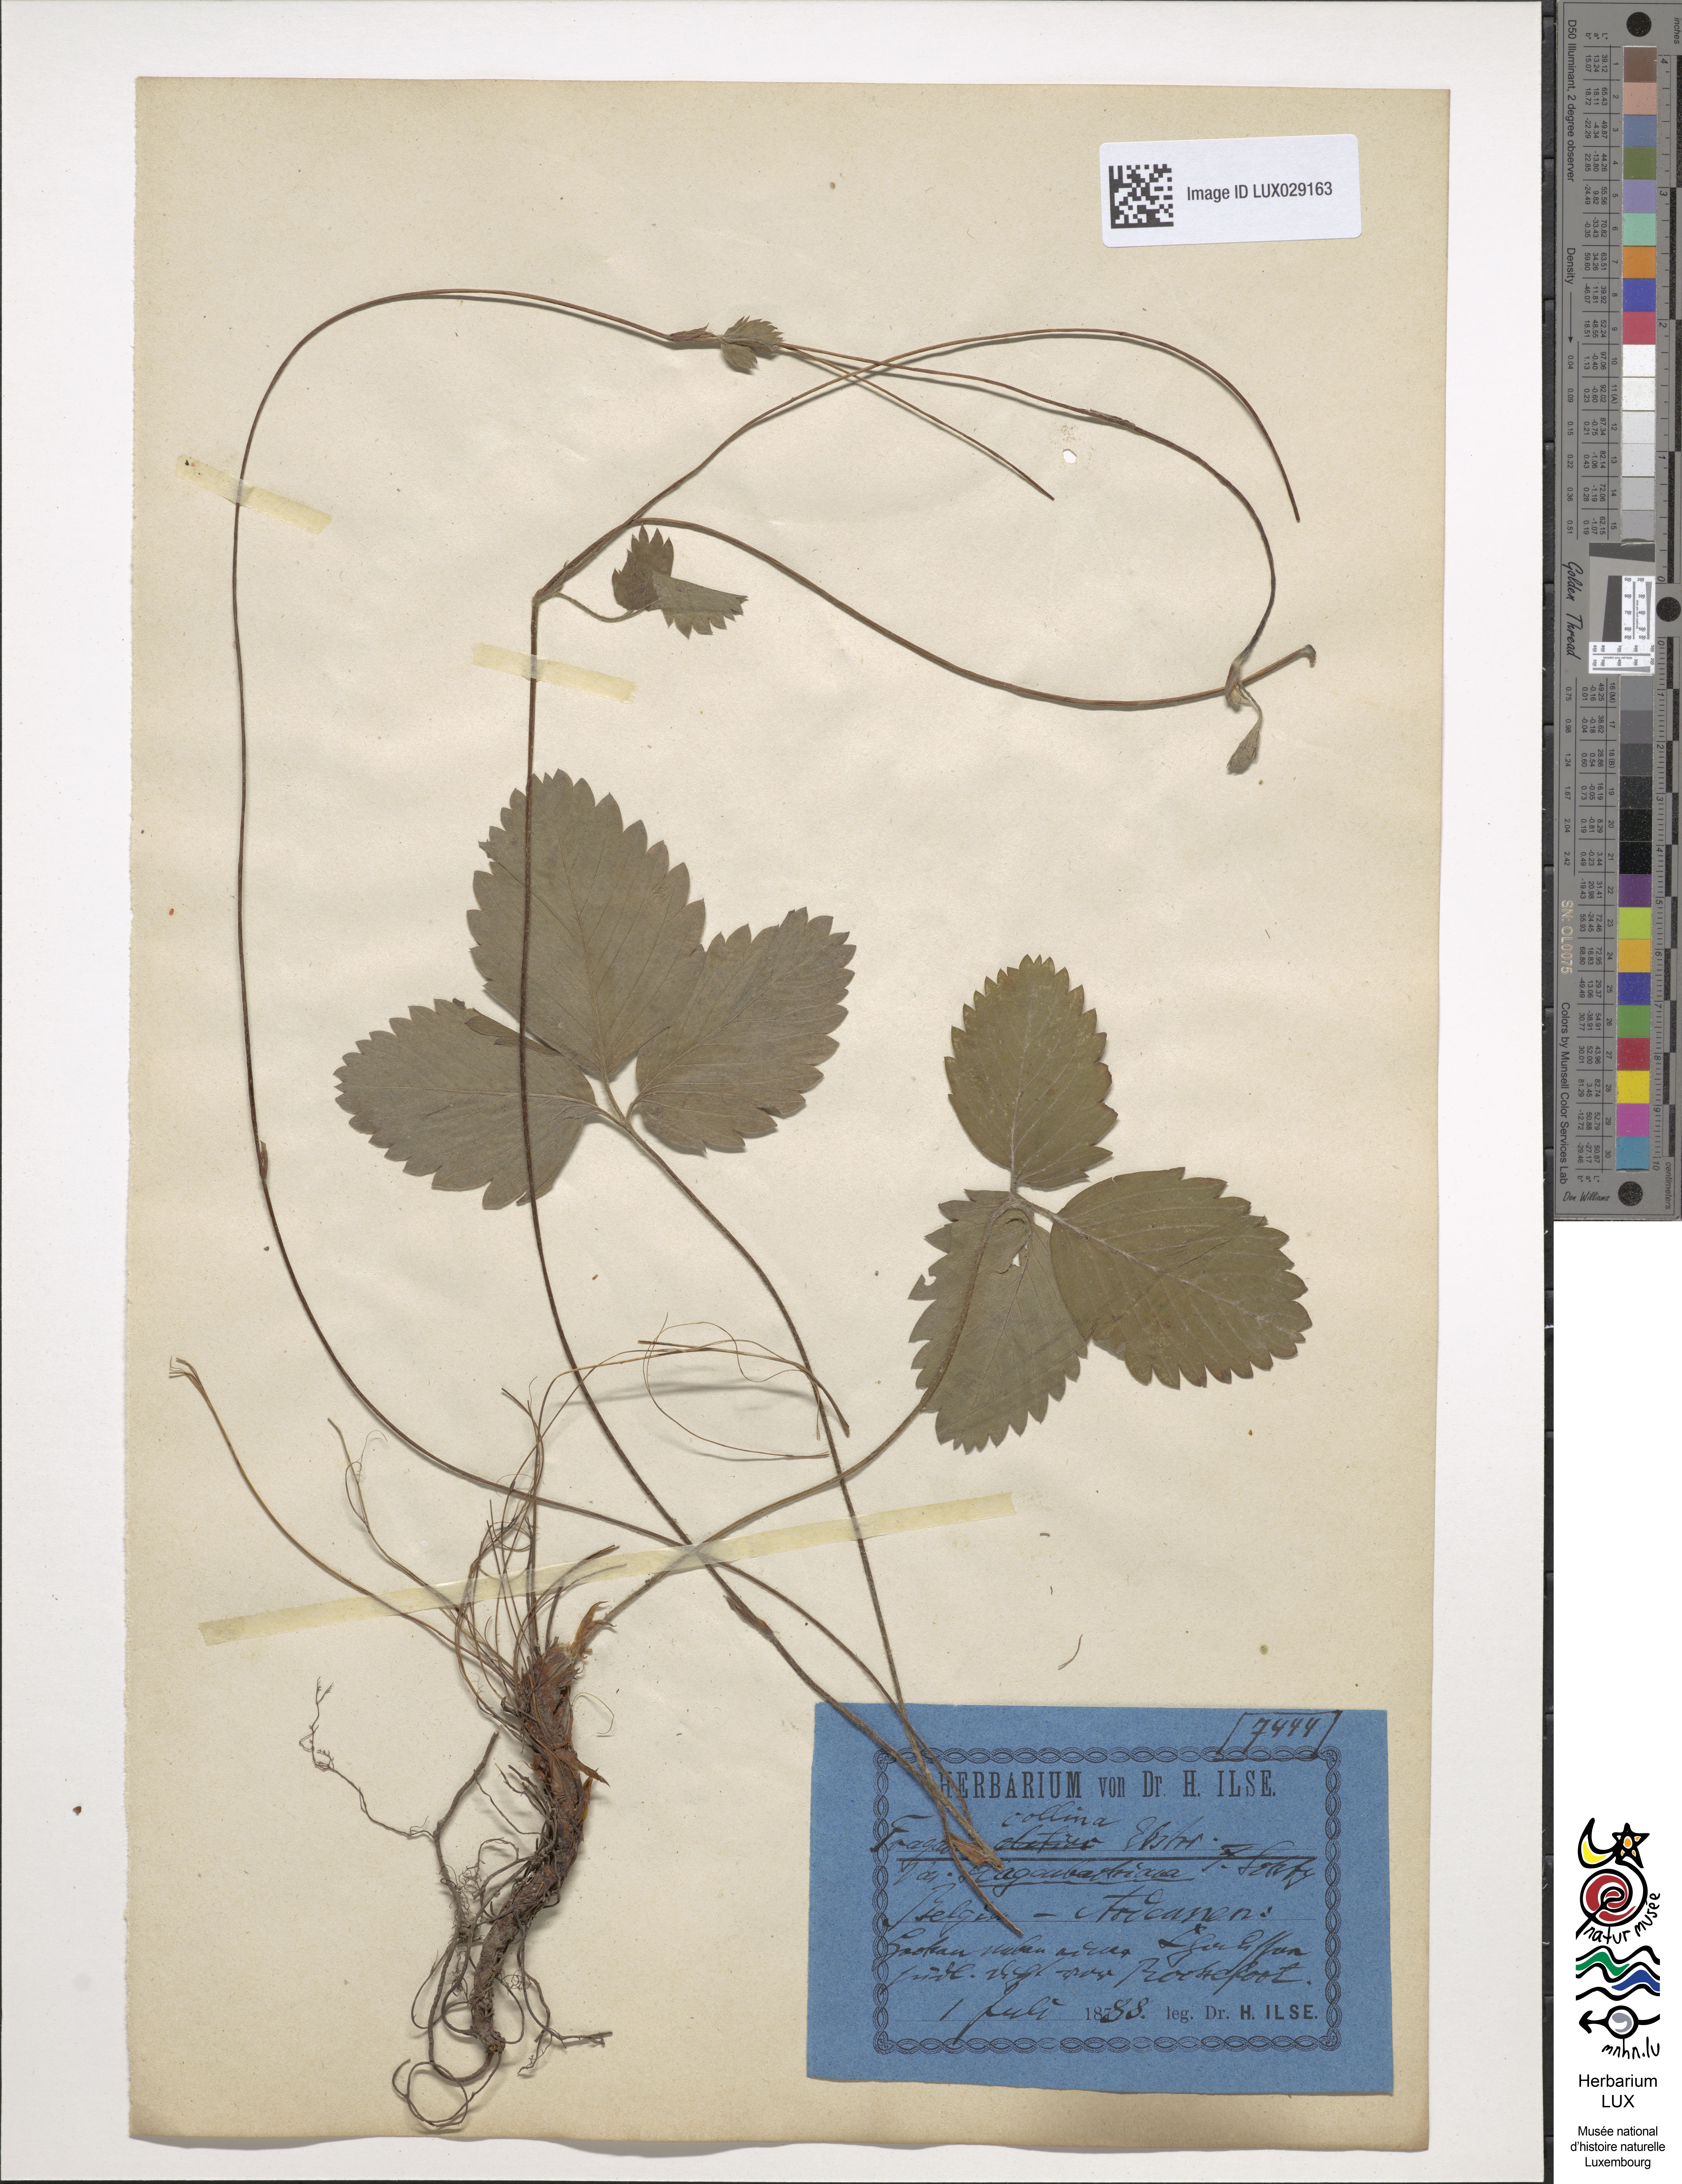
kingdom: Plantae
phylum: Tracheophyta
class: Magnoliopsida
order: Rosales
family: Rosaceae
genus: Fragaria
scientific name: Fragaria bifera
